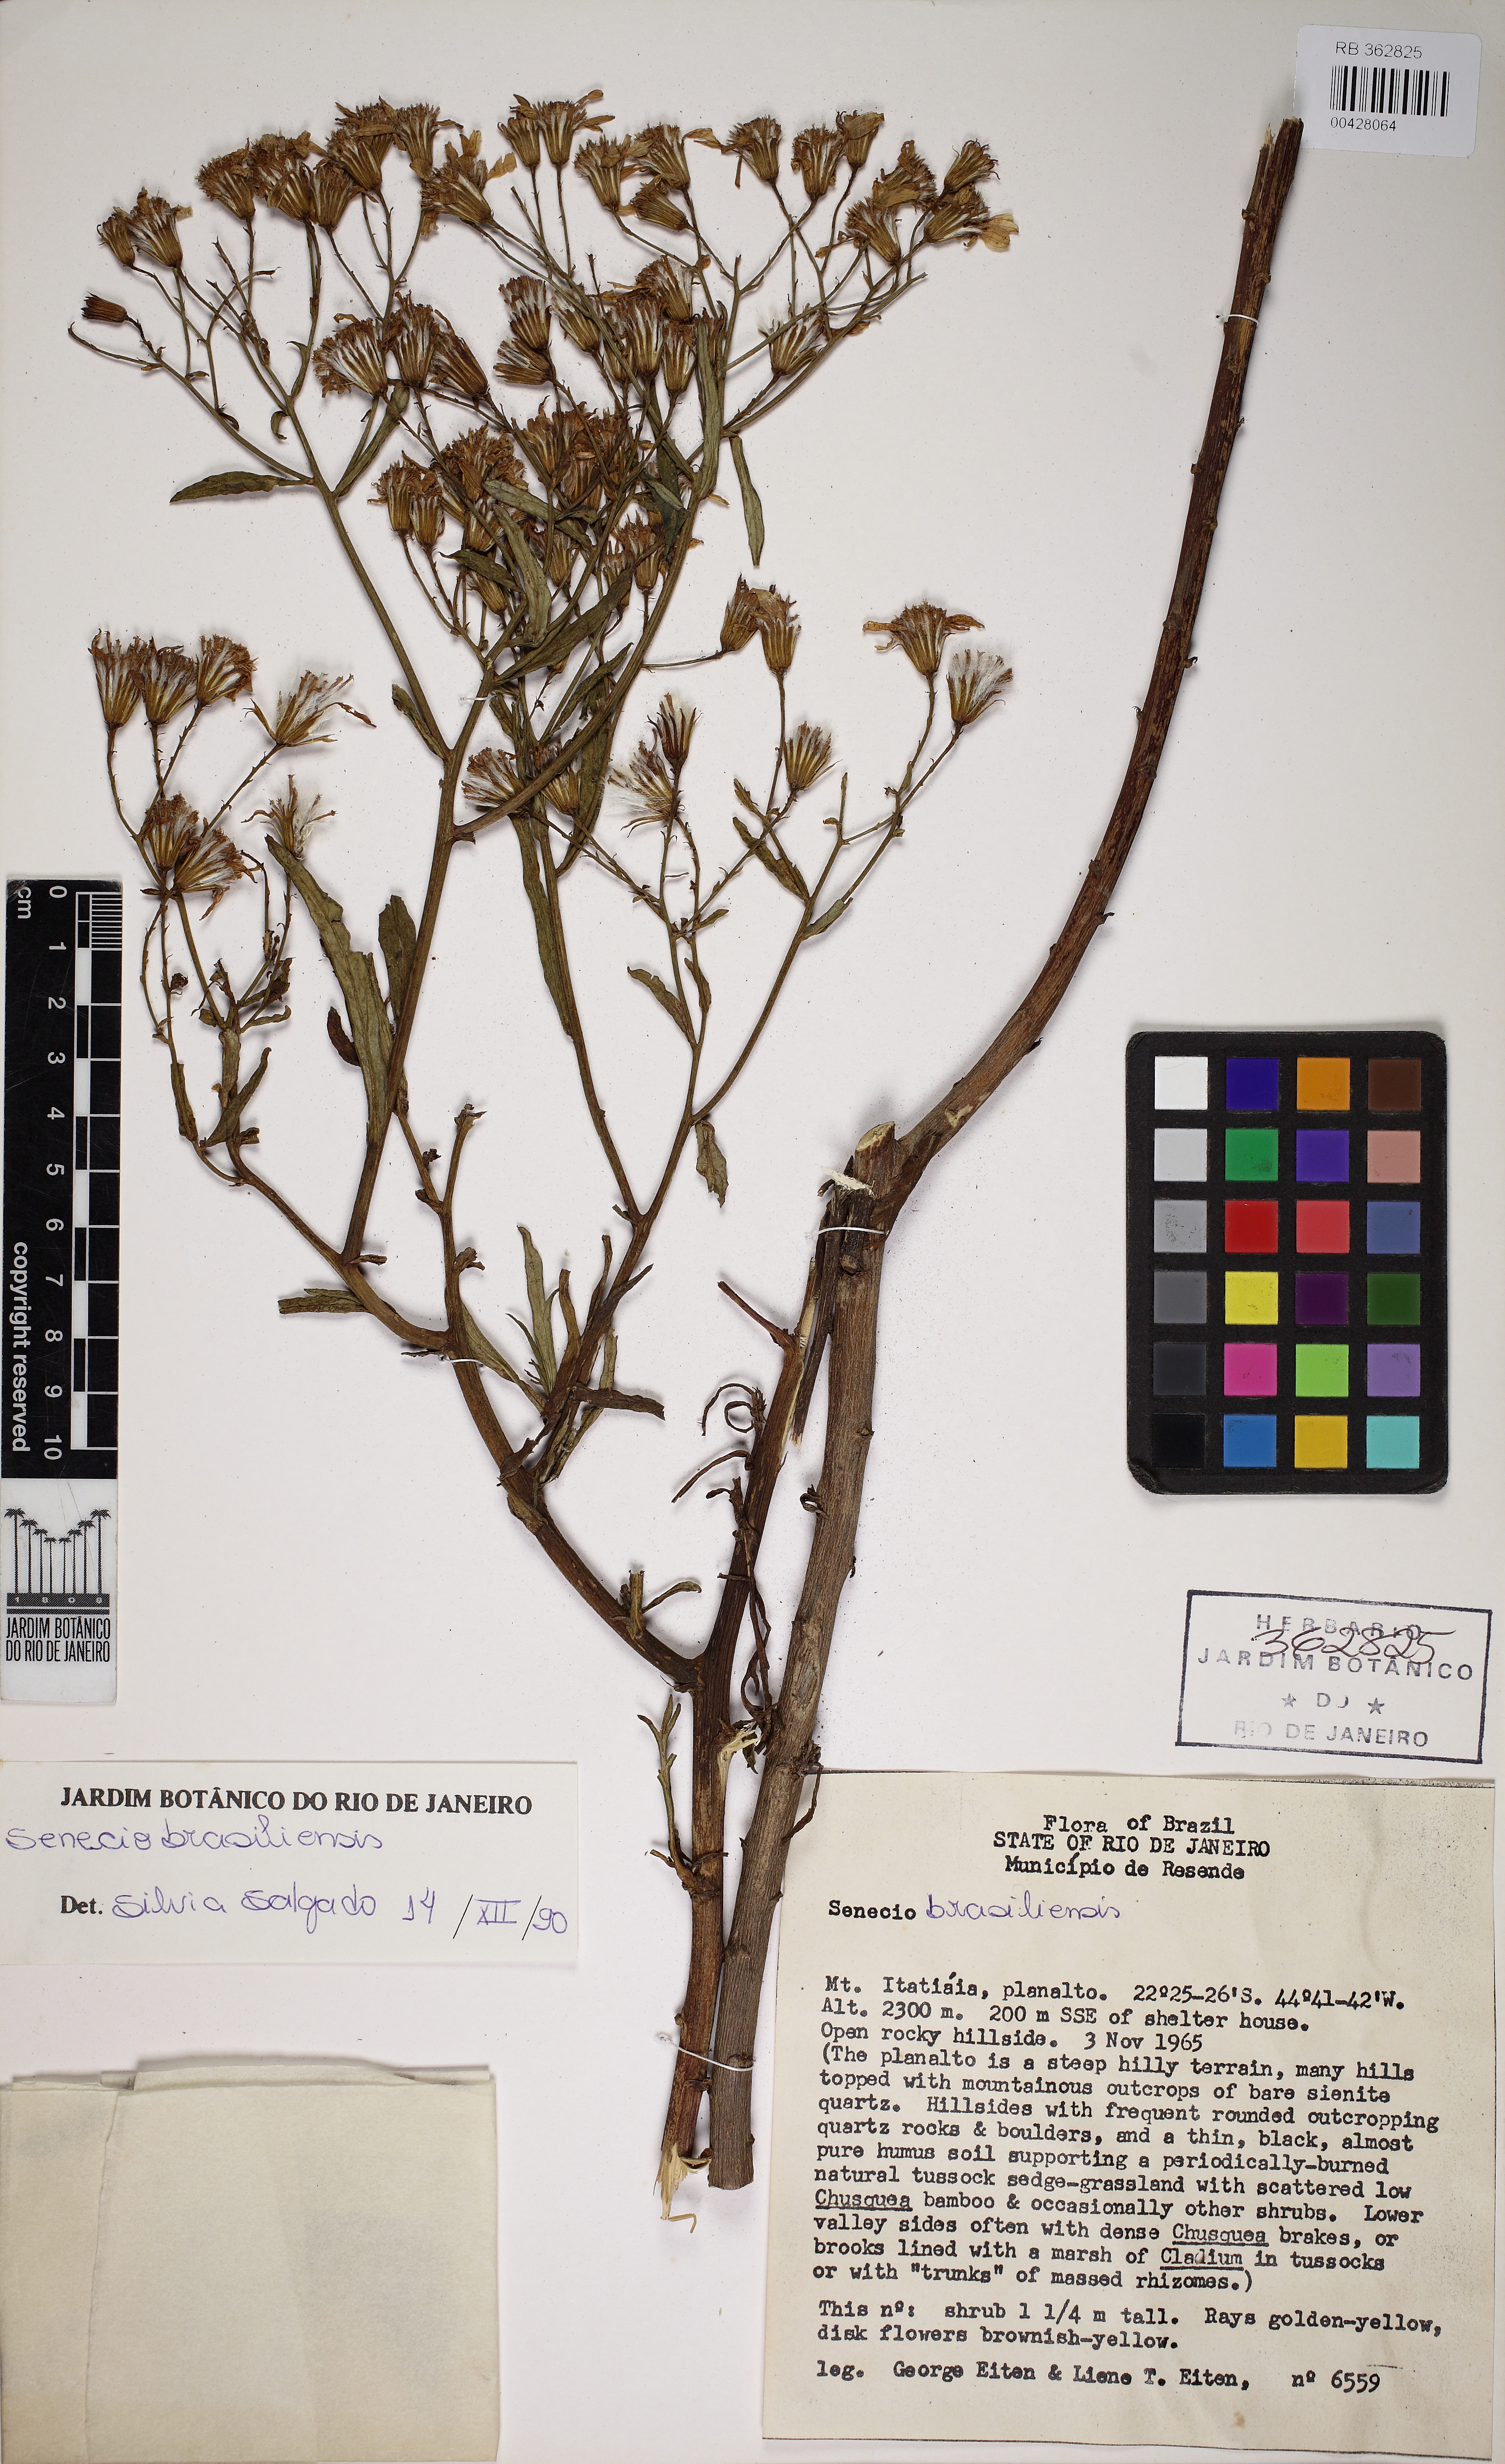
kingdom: Plantae
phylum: Tracheophyta
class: Magnoliopsida
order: Asterales
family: Asteraceae
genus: Senecio
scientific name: Senecio brasiliensis
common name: Hemp-leaf ragwort
